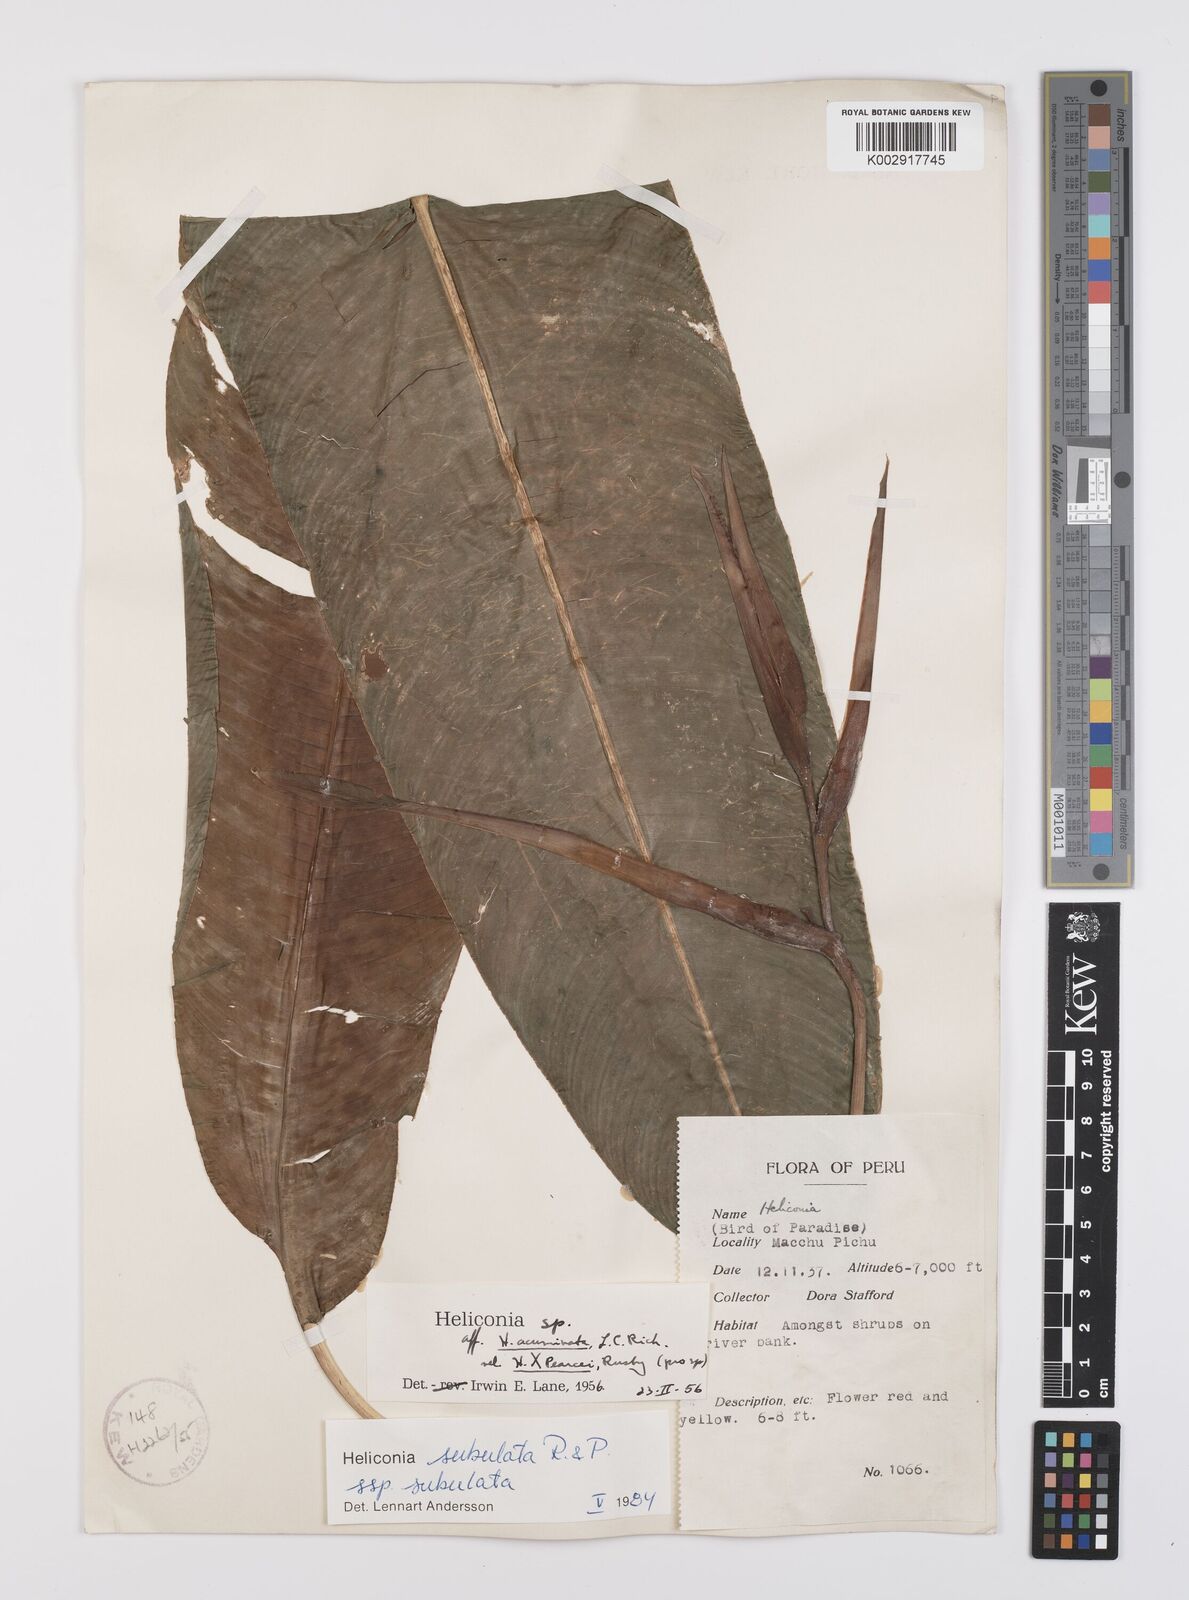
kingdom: Plantae
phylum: Tracheophyta
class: Liliopsida
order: Zingiberales
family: Heliconiaceae
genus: Heliconia
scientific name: Heliconia subulata
